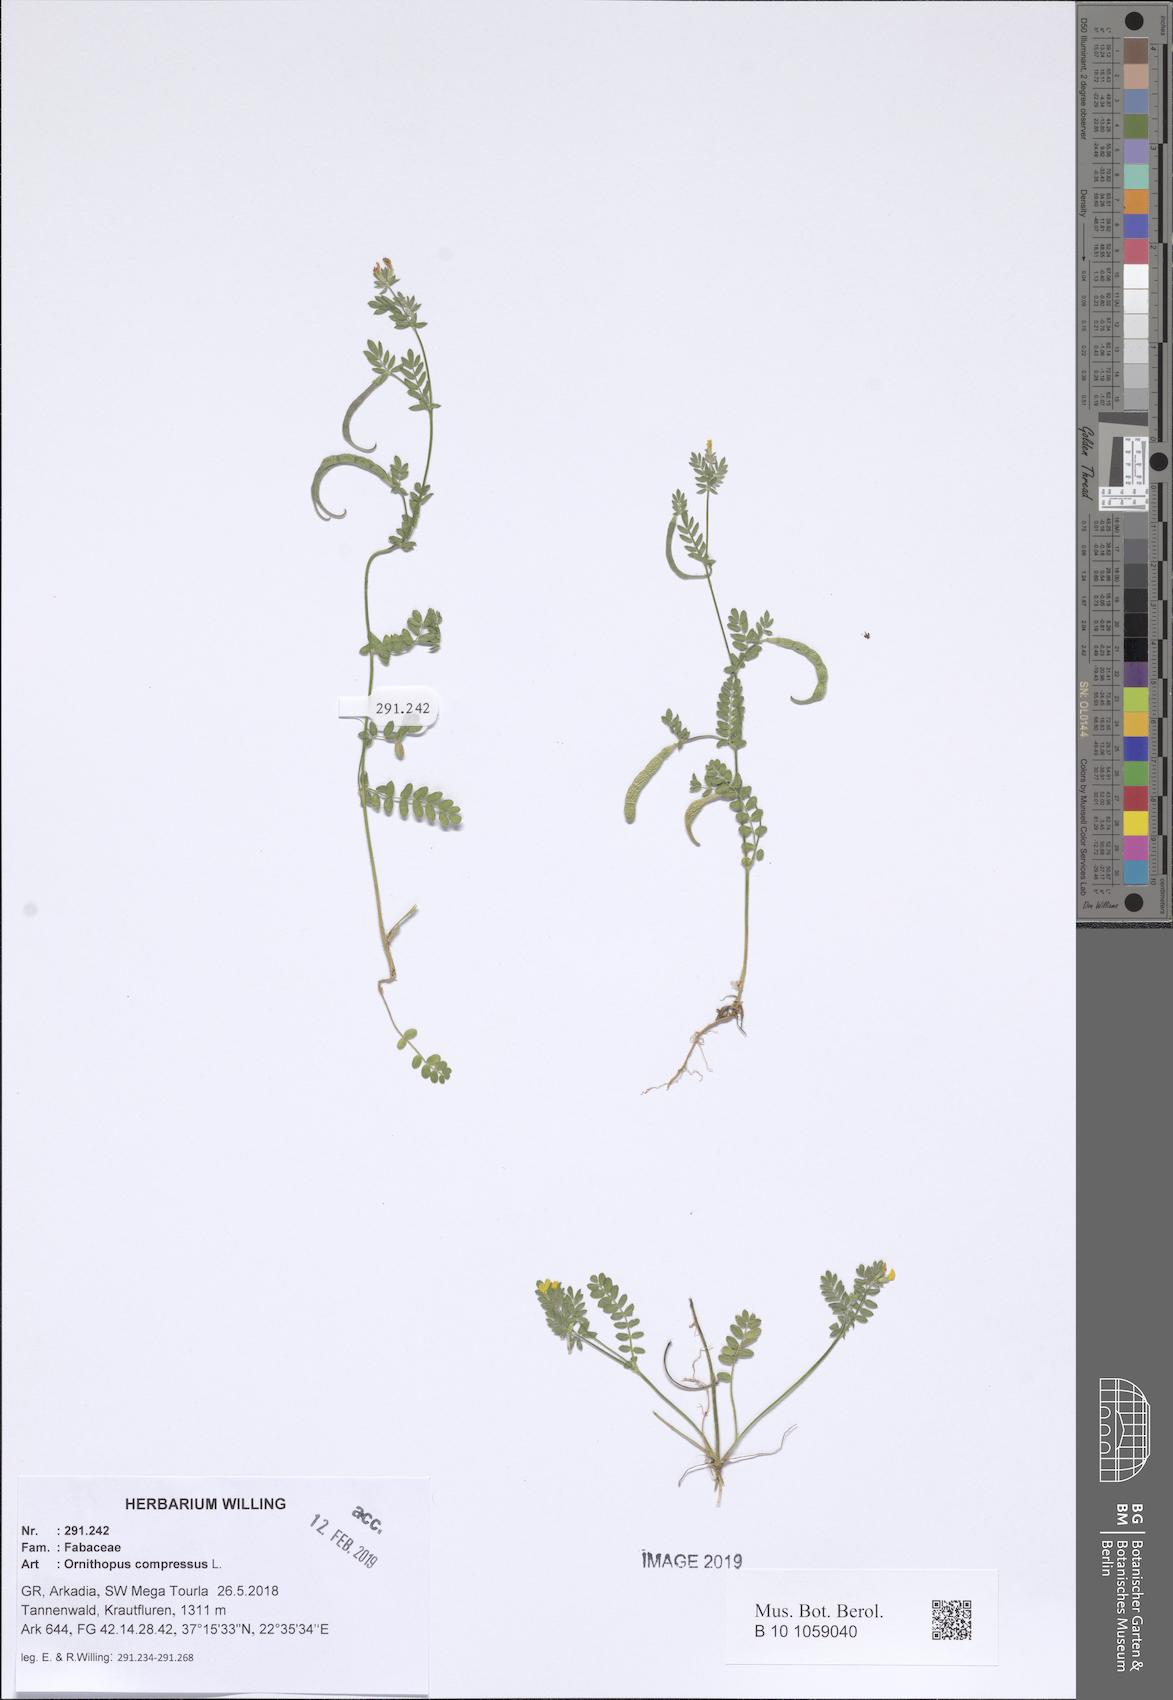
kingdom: Plantae
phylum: Tracheophyta
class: Magnoliopsida
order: Fabales
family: Fabaceae
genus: Ornithopus
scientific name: Ornithopus compressus
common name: Yellow serradella
